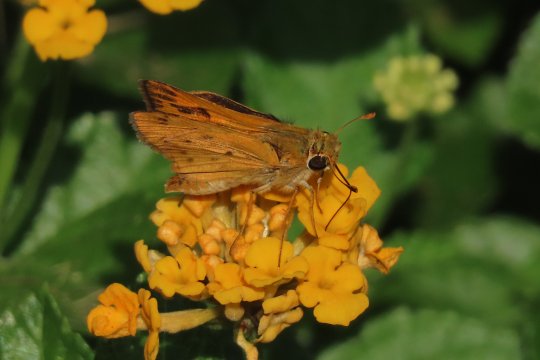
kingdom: Animalia
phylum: Arthropoda
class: Insecta
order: Lepidoptera
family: Hesperiidae
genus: Hylephila
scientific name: Hylephila phyleus
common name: Fiery Skipper
